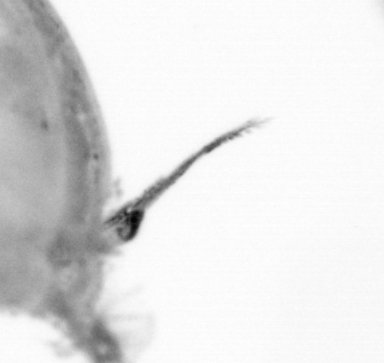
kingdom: Animalia
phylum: Arthropoda
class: Copepoda
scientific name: Copepoda
